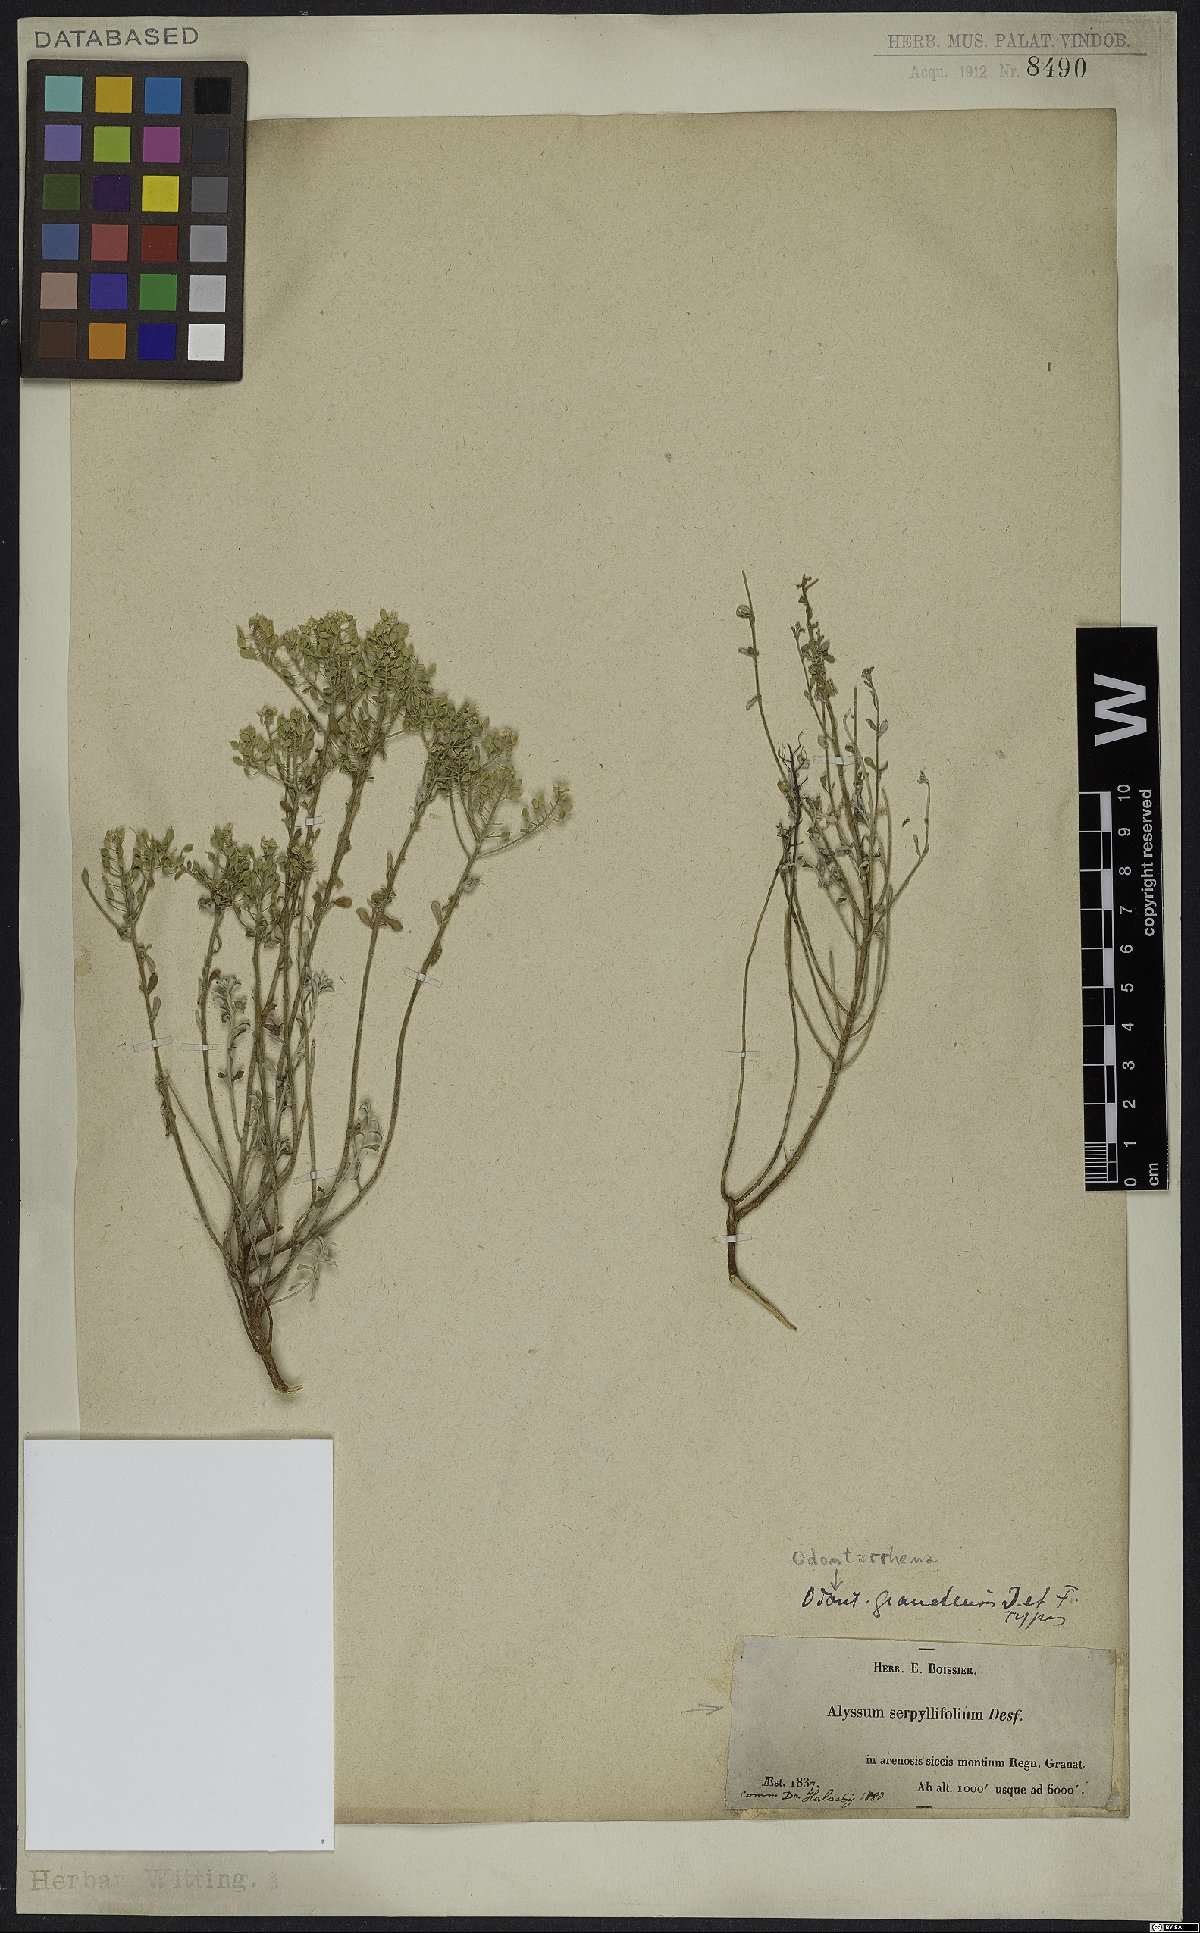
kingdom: Plantae
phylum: Tracheophyta
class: Magnoliopsida
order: Brassicales
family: Brassicaceae
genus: Odontarrhena
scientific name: Odontarrhena serpyllifolia
